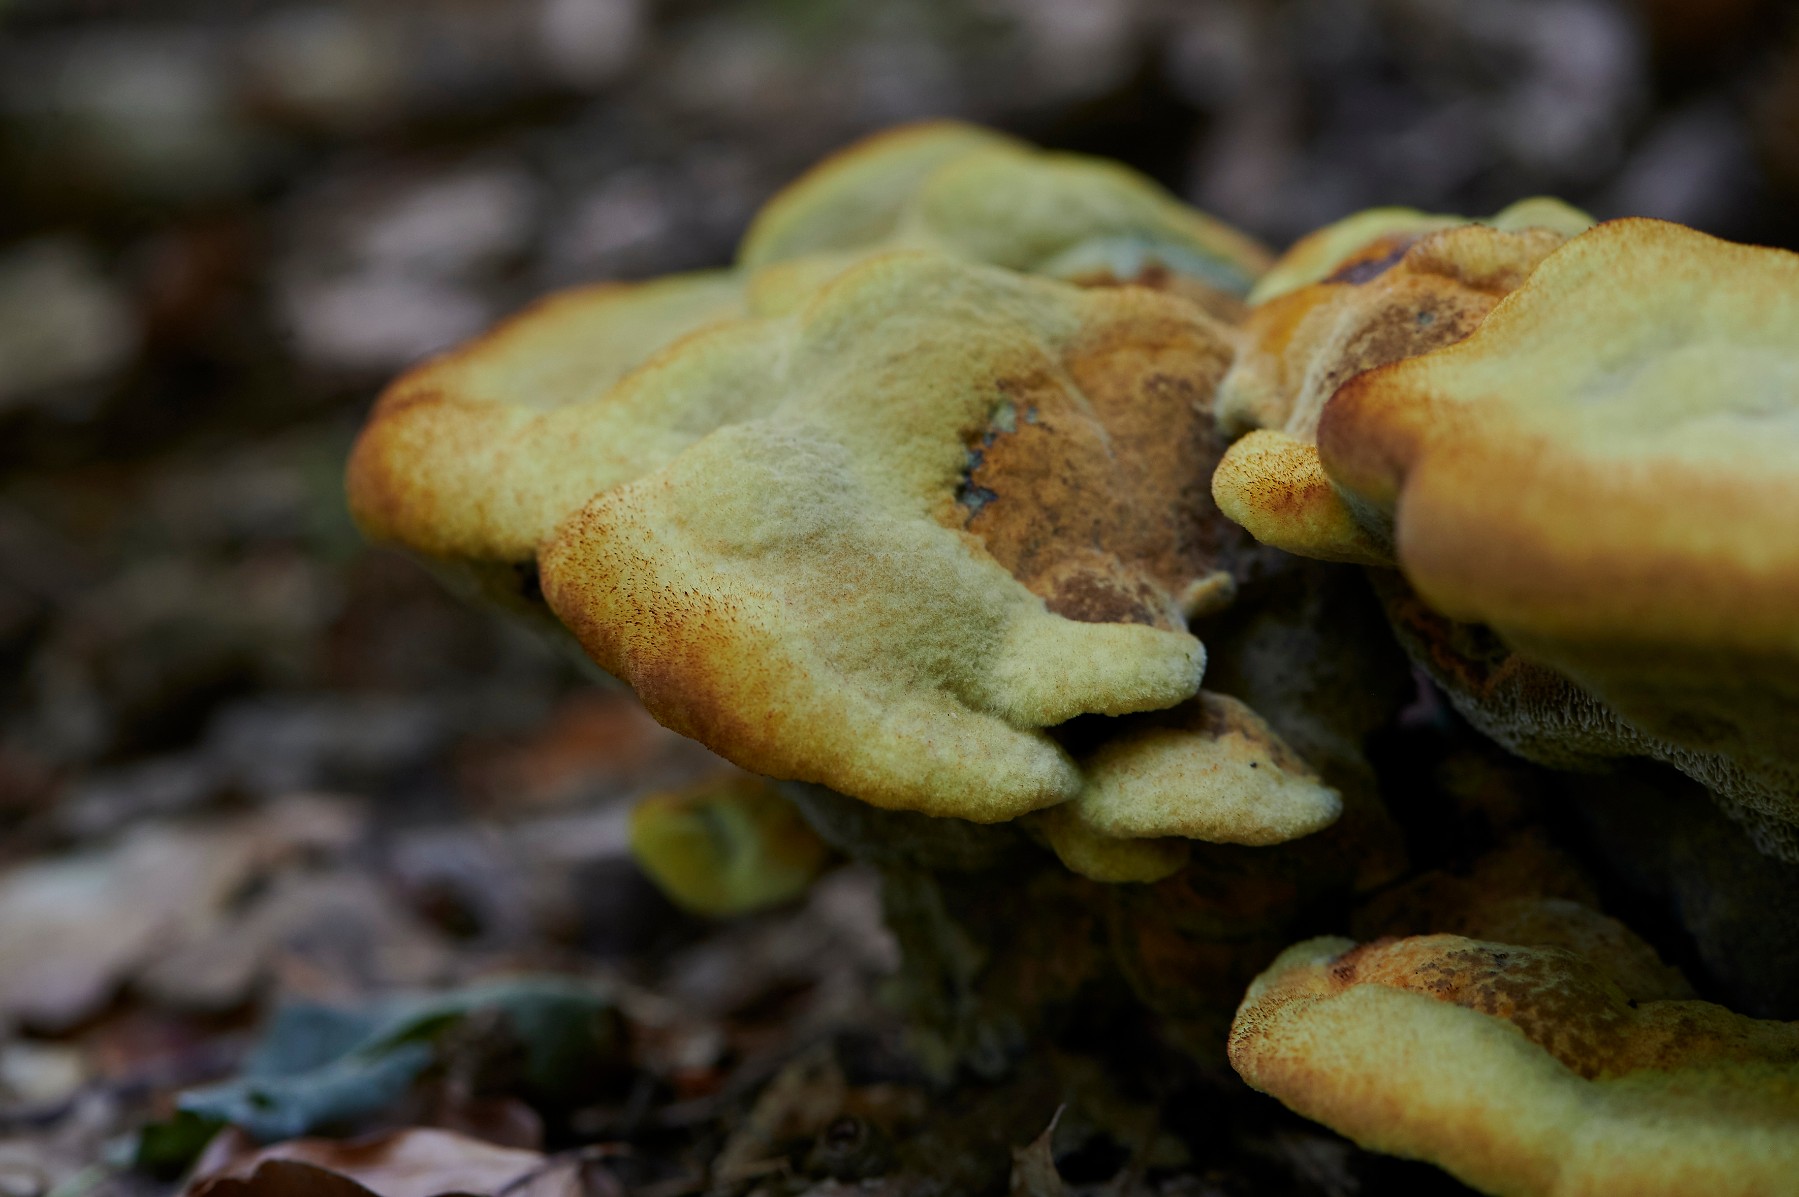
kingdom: Fungi
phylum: Basidiomycota
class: Agaricomycetes
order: Polyporales
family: Laetiporaceae
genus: Phaeolus
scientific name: Phaeolus schweinitzii
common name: brunporesvamp
